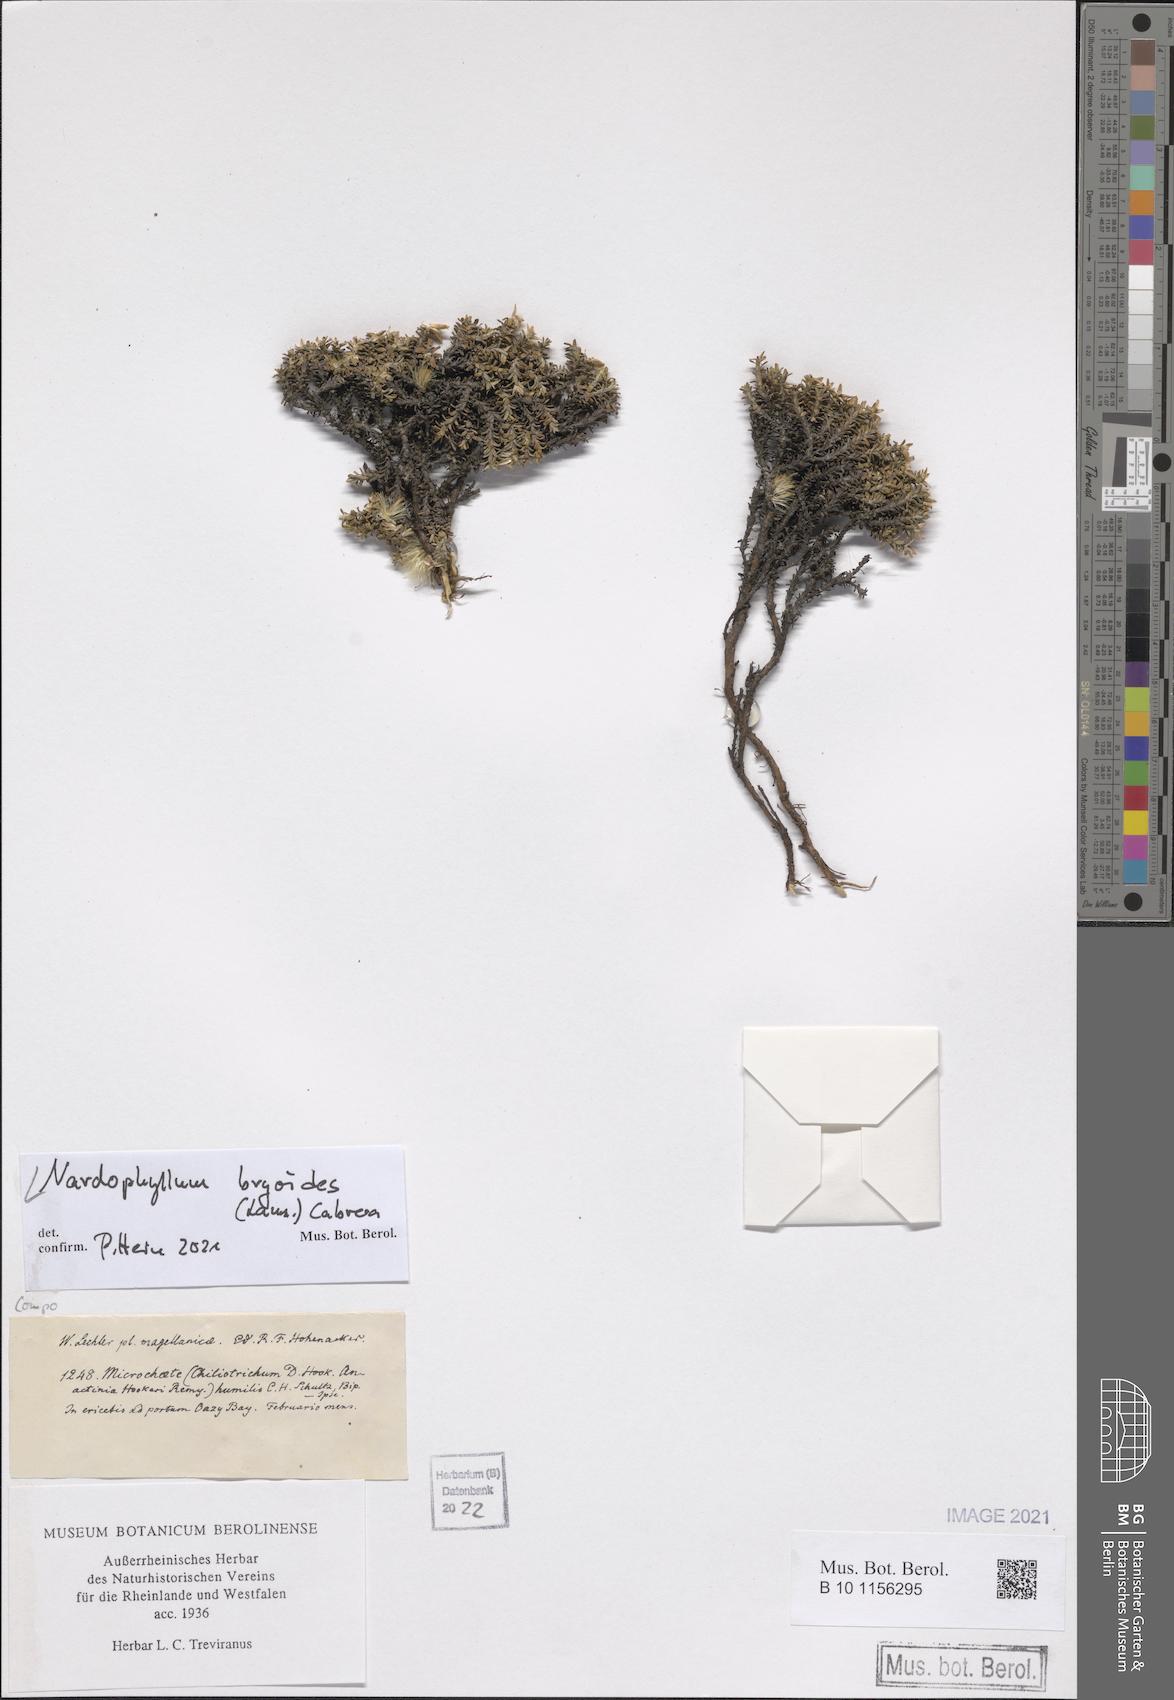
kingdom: Plantae
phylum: Tracheophyta
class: Magnoliopsida
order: Asterales
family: Asteraceae
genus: Nardophyllum
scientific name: Nardophyllum bryoides
